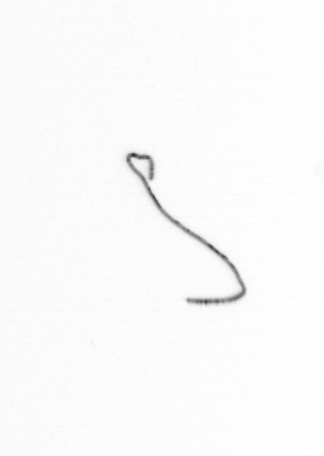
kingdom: Chromista
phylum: Ochrophyta
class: Bacillariophyceae
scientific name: Bacillariophyceae
